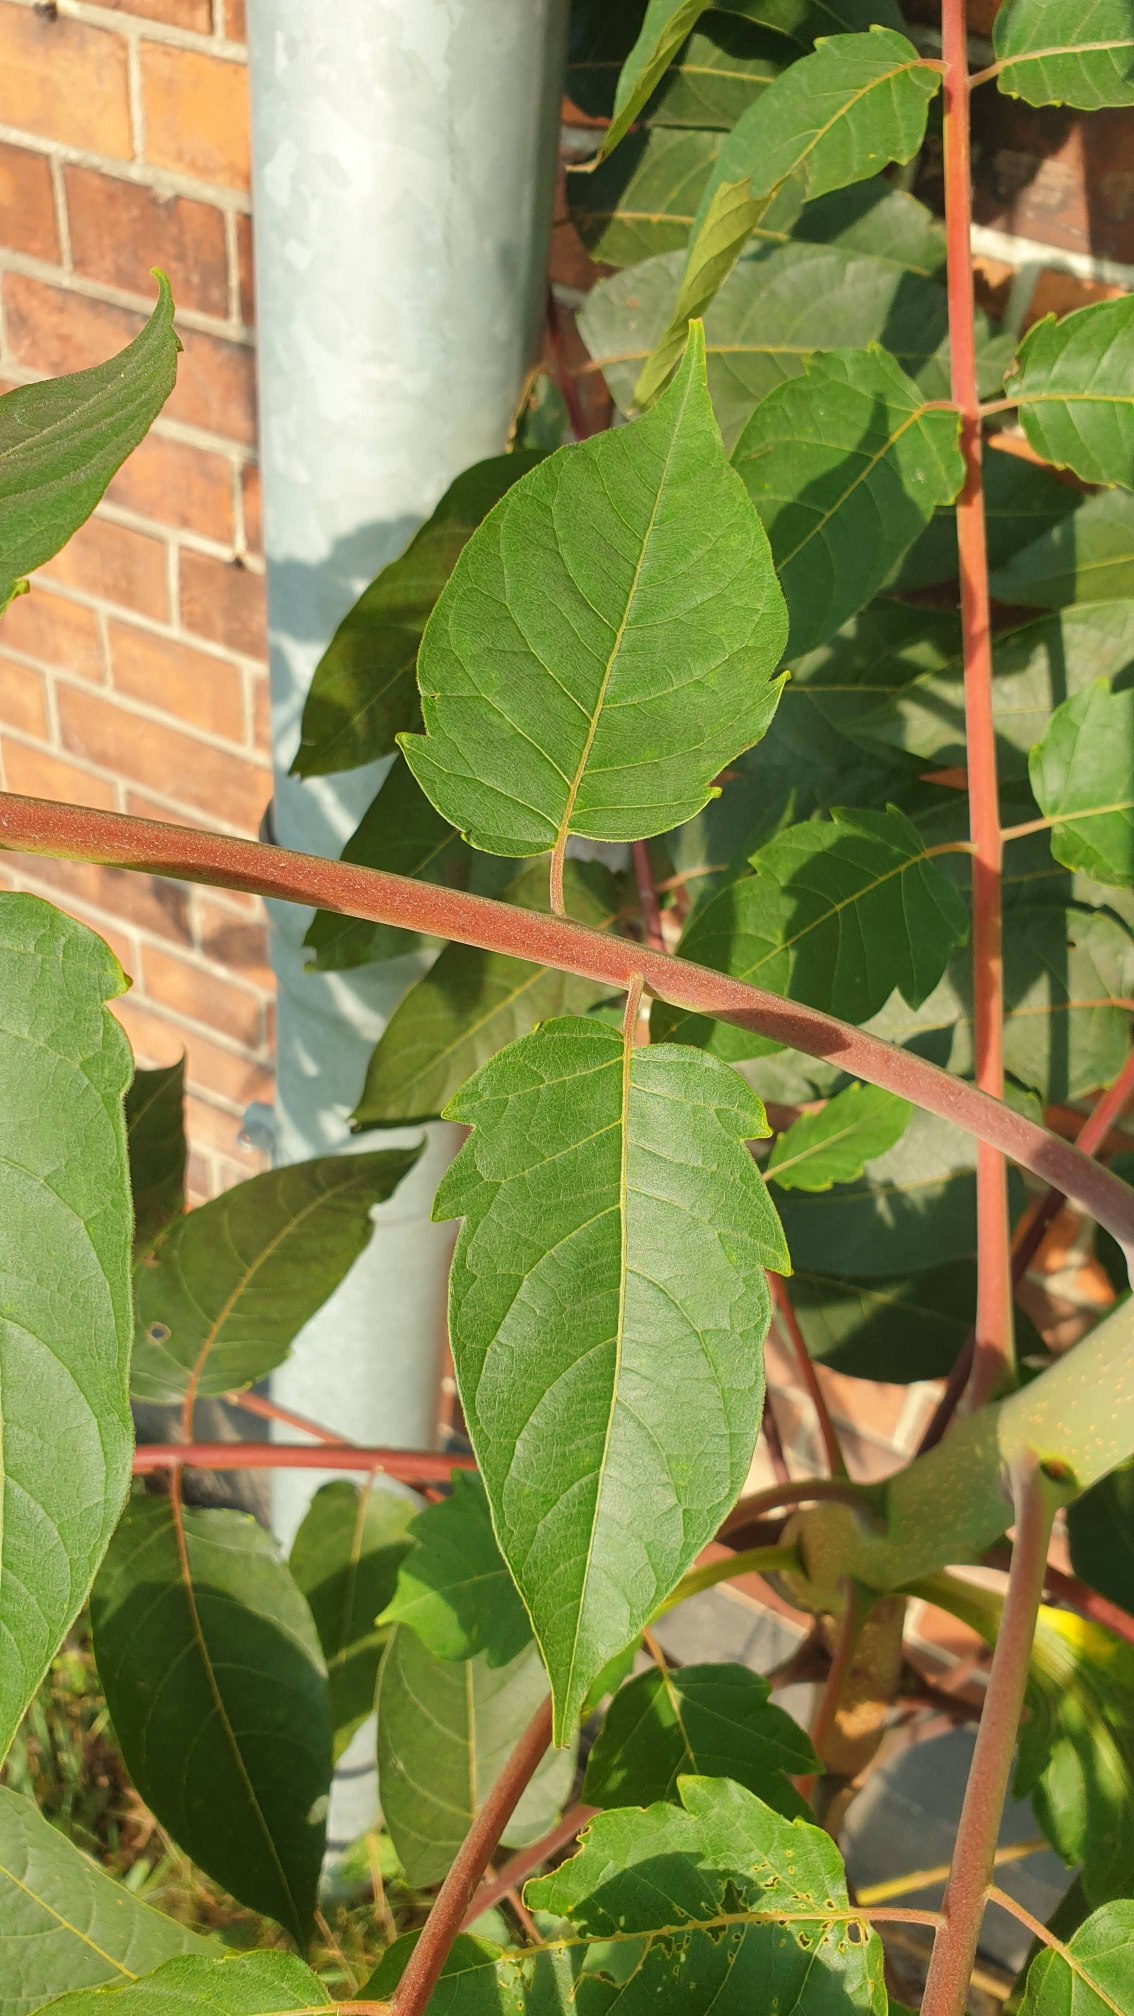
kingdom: Plantae
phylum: Tracheophyta
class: Magnoliopsida
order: Sapindales
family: Simaroubaceae
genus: Ailanthus
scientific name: Ailanthus altissima
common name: Skyrækker
